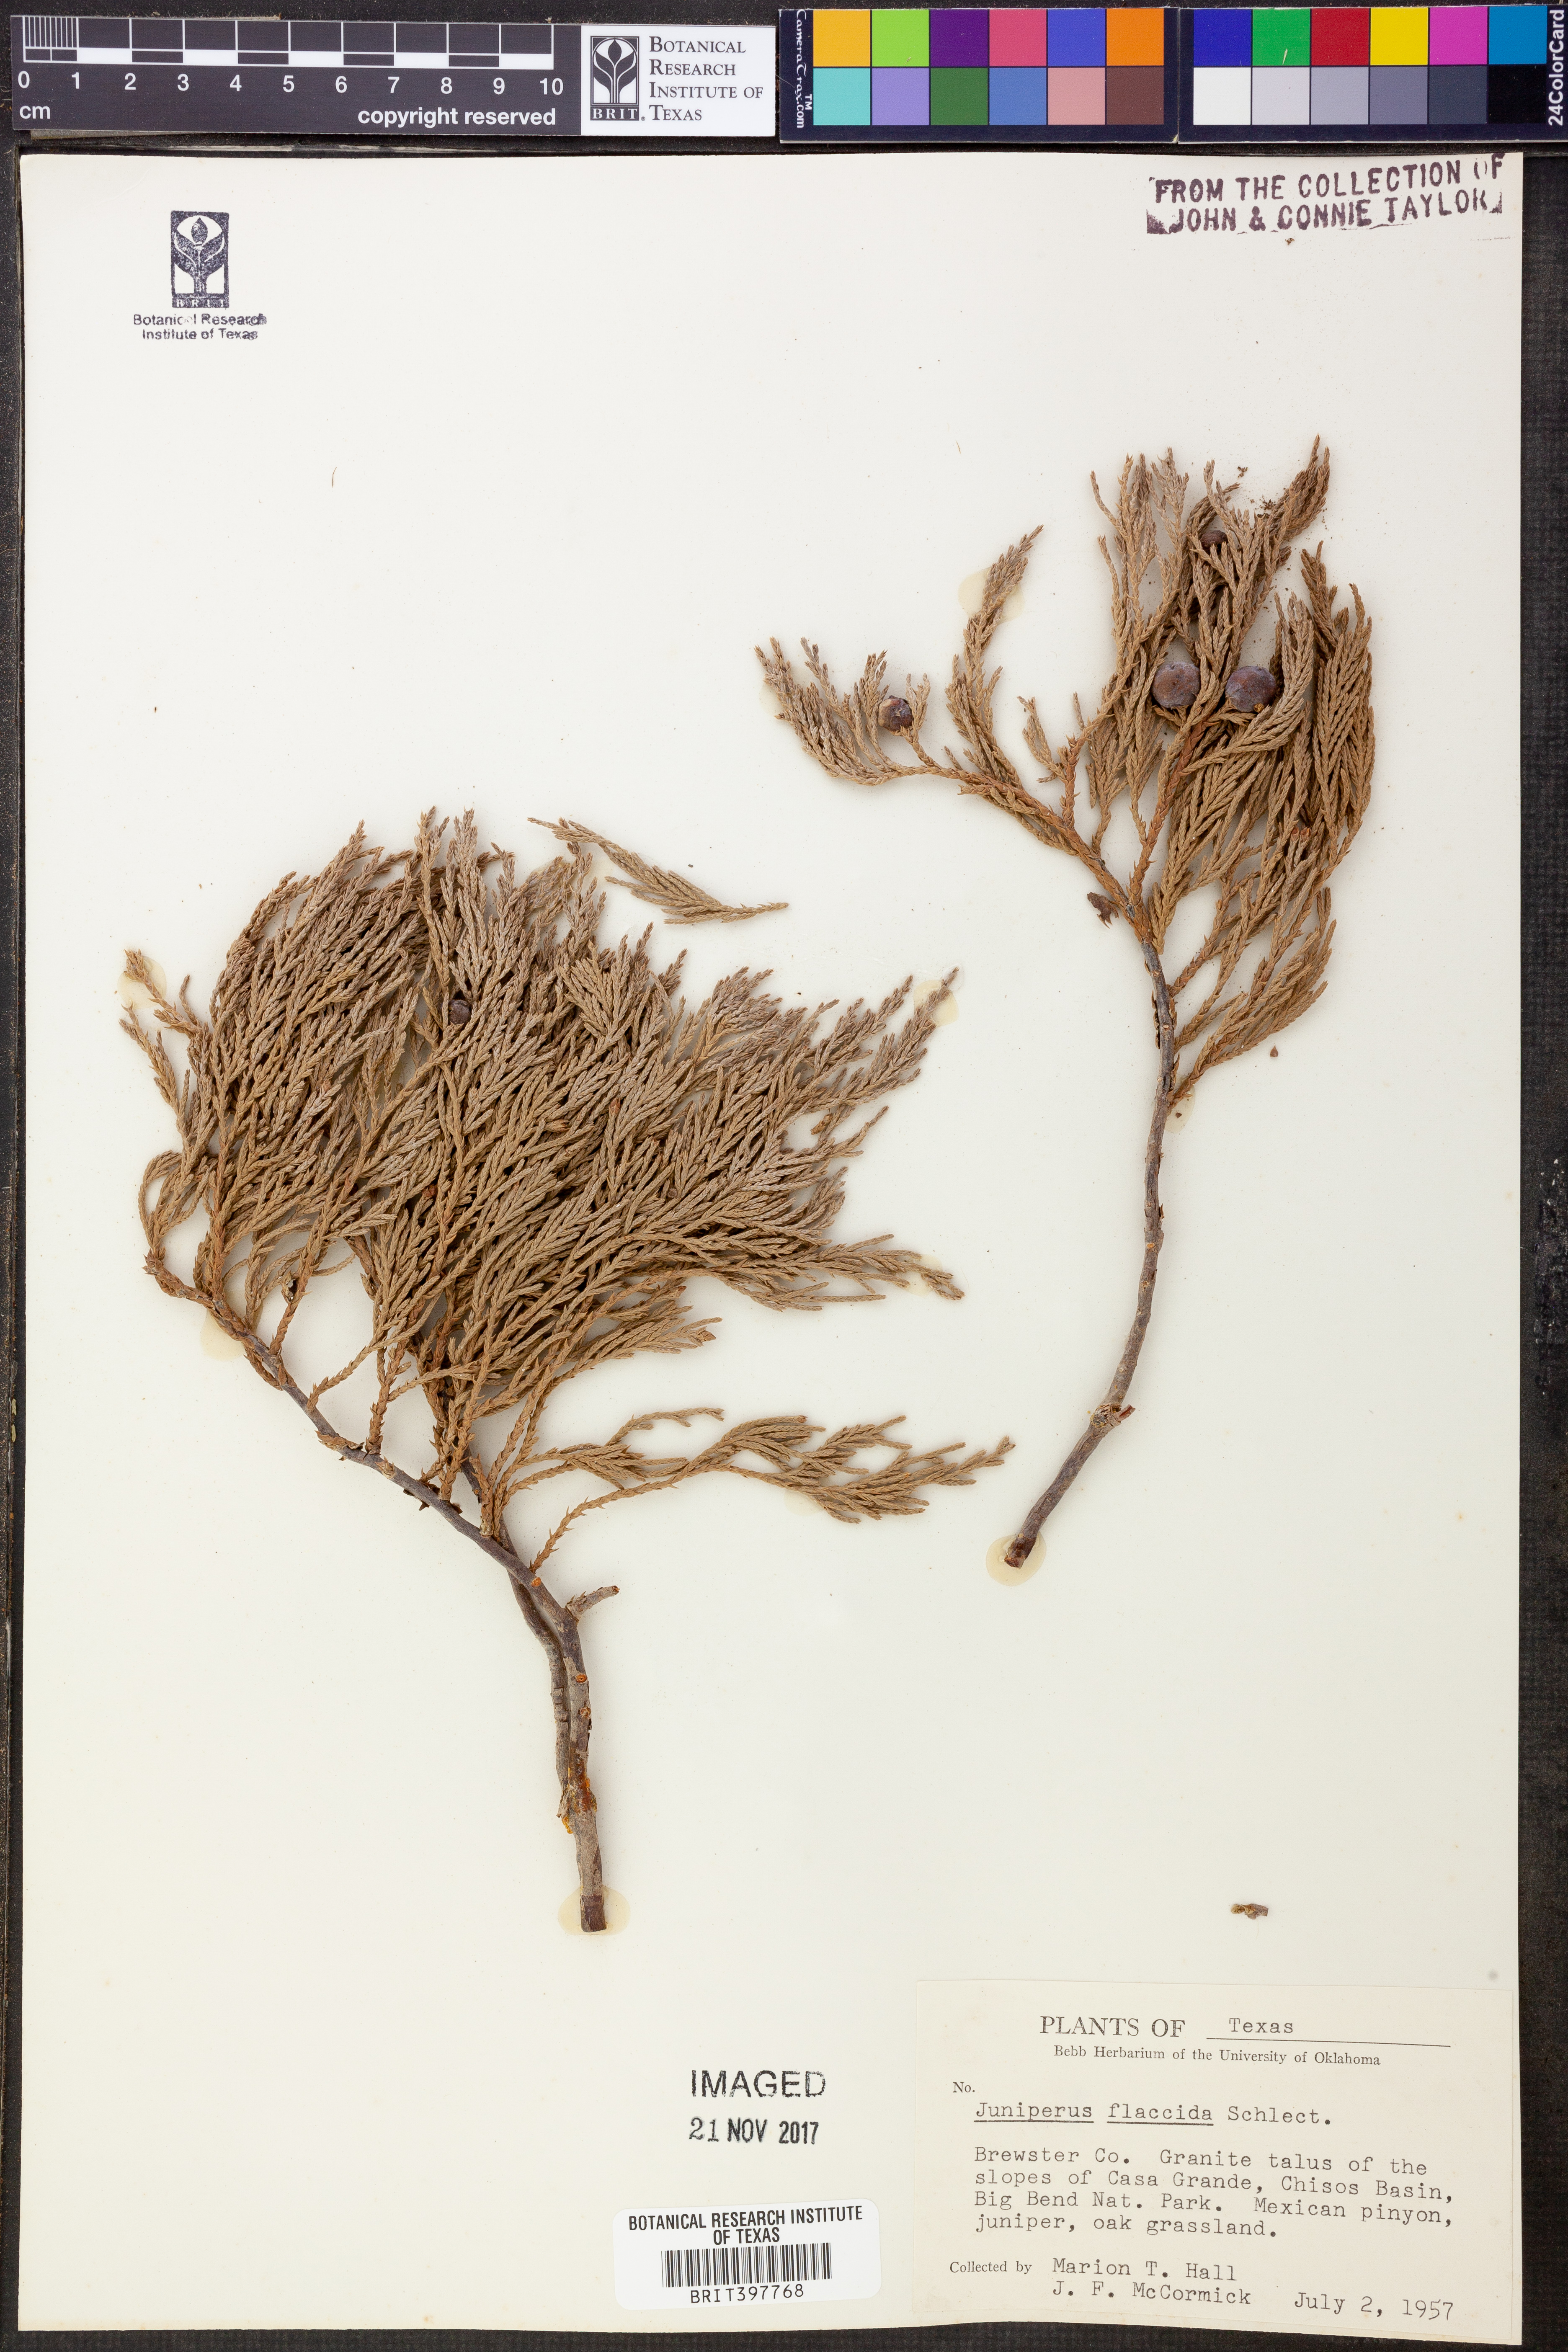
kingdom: Plantae
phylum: Tracheophyta
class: Pinopsida
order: Pinales
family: Cupressaceae
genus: Juniperus
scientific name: Juniperus flaccida
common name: Drooping juniper
